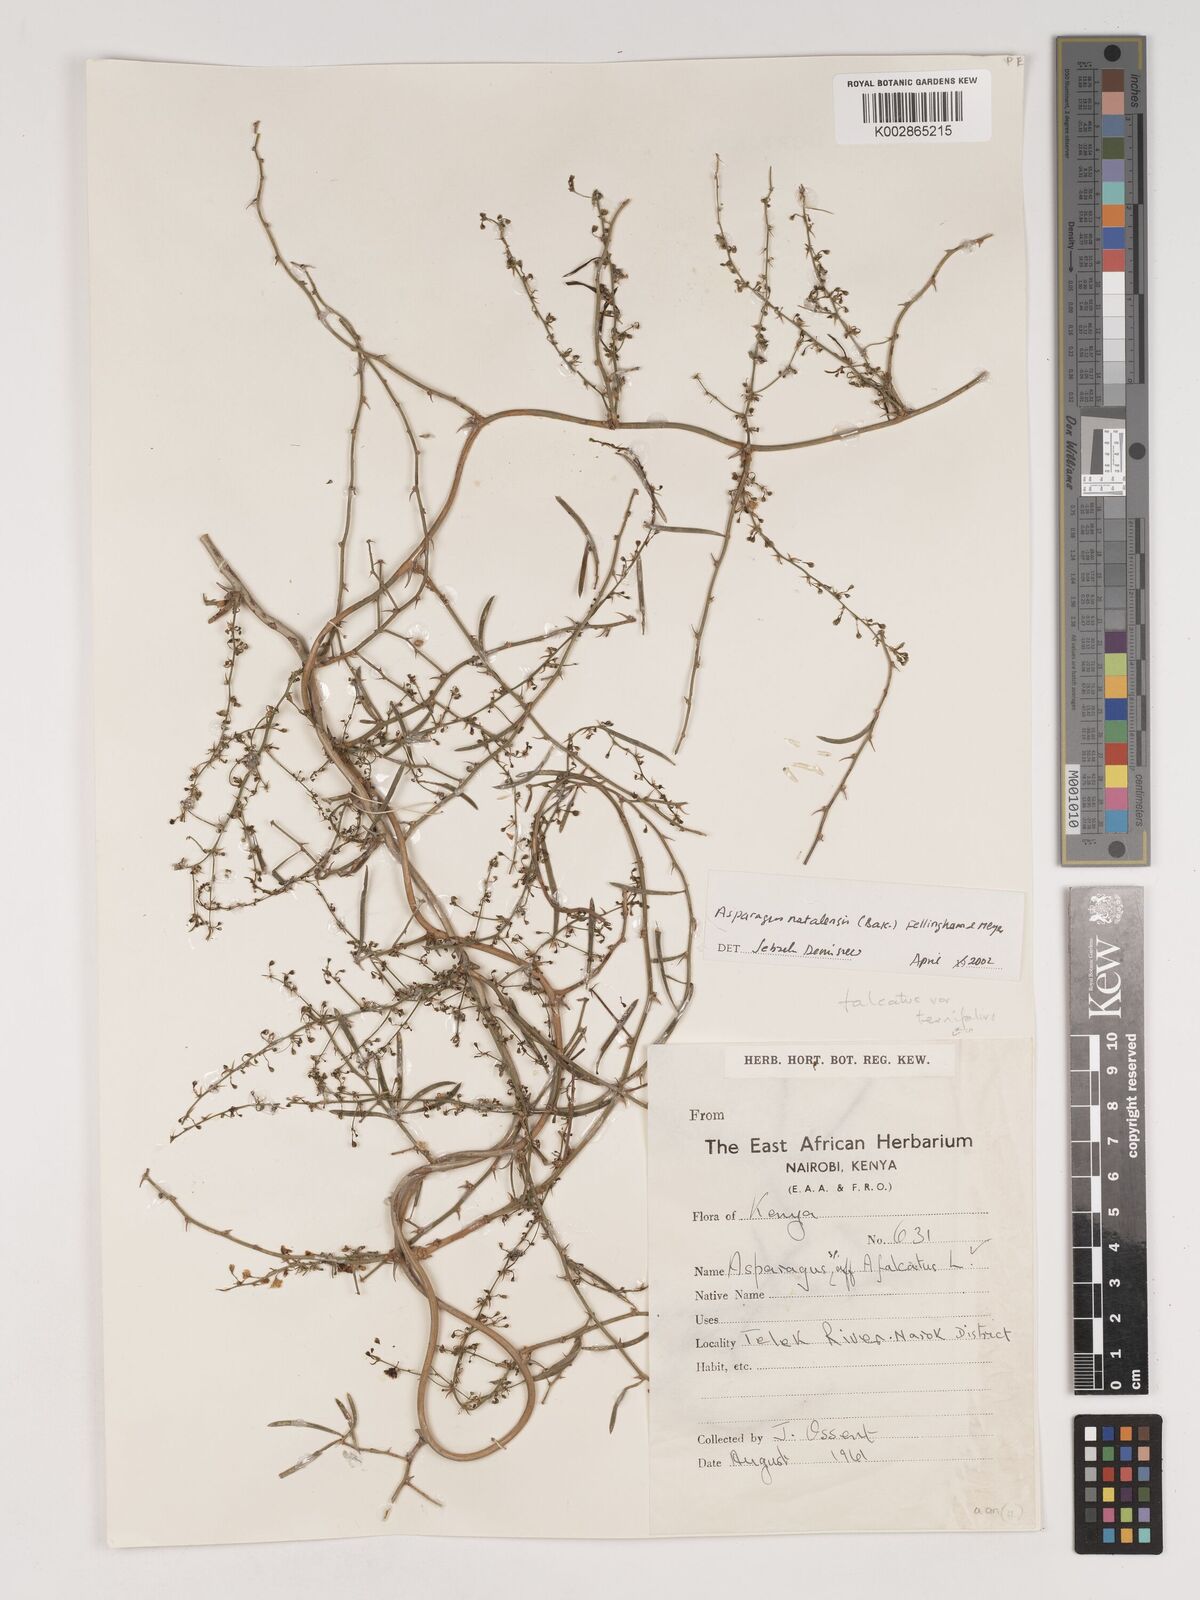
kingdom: Plantae
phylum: Tracheophyta
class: Liliopsida
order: Asparagales
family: Asparagaceae
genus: Asparagus
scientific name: Asparagus natalensis
